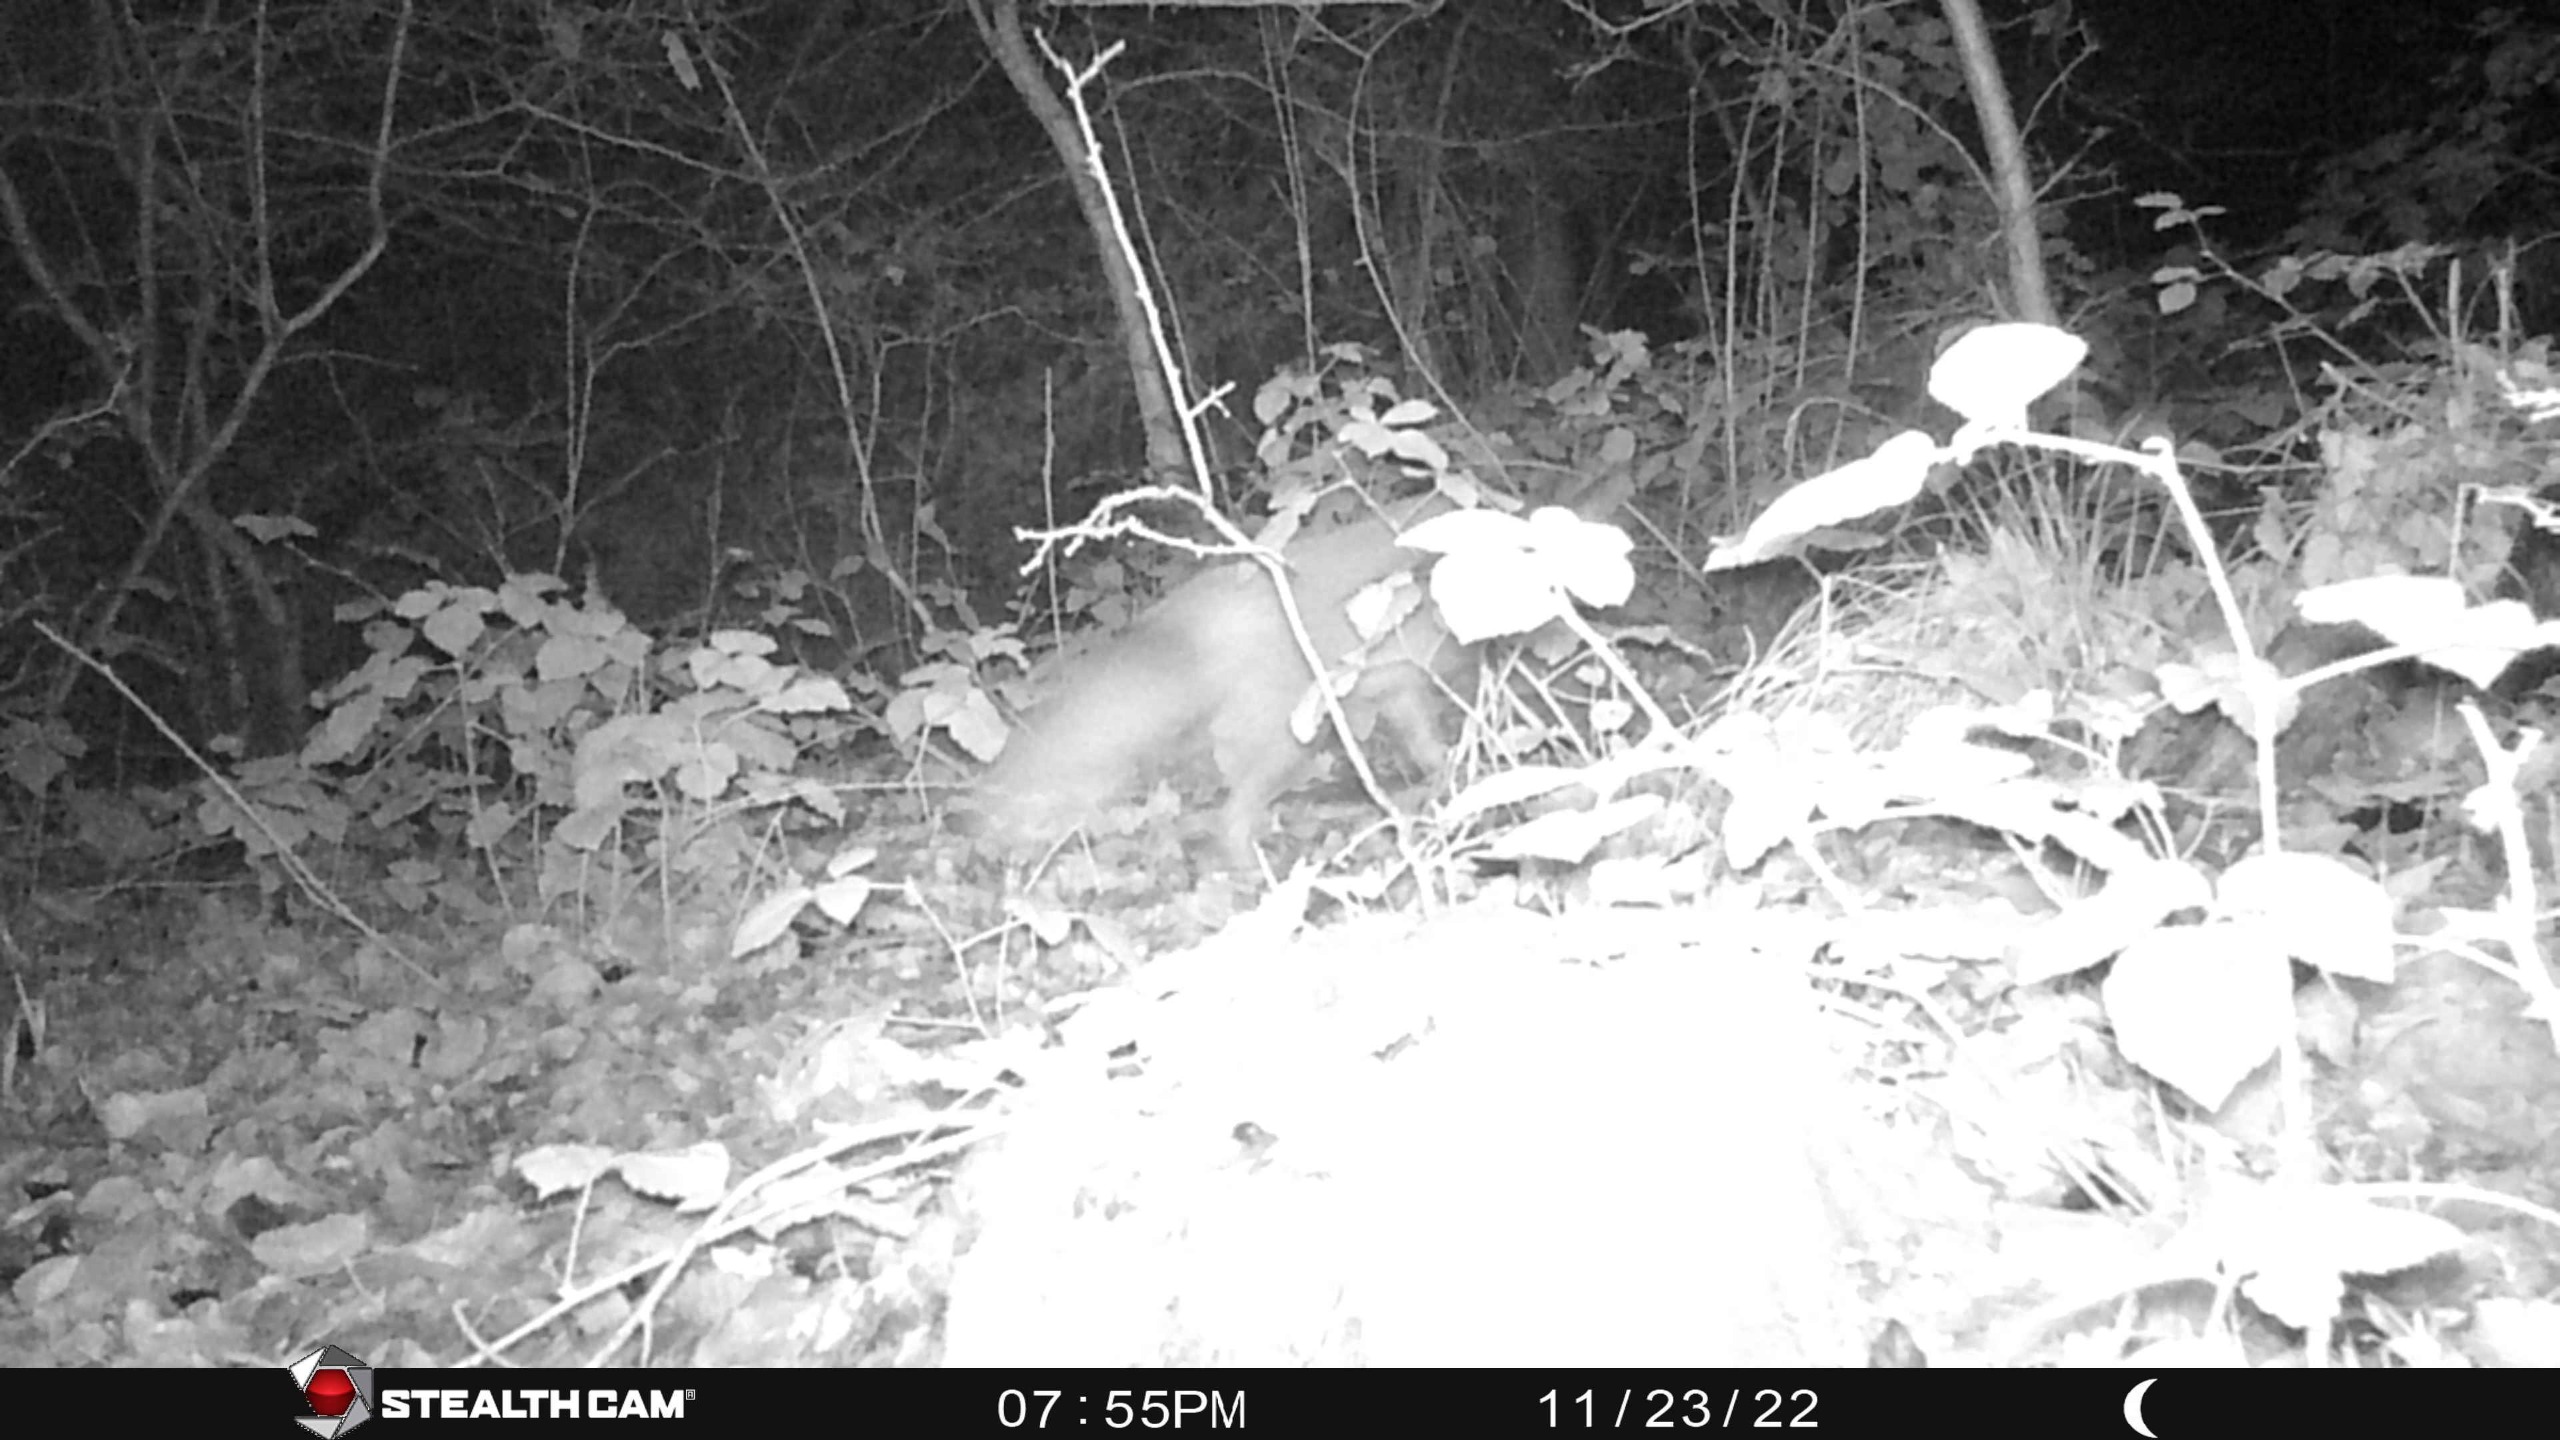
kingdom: Animalia
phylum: Chordata
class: Mammalia
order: Carnivora
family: Canidae
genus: Vulpes
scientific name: Vulpes vulpes
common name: Ræv
